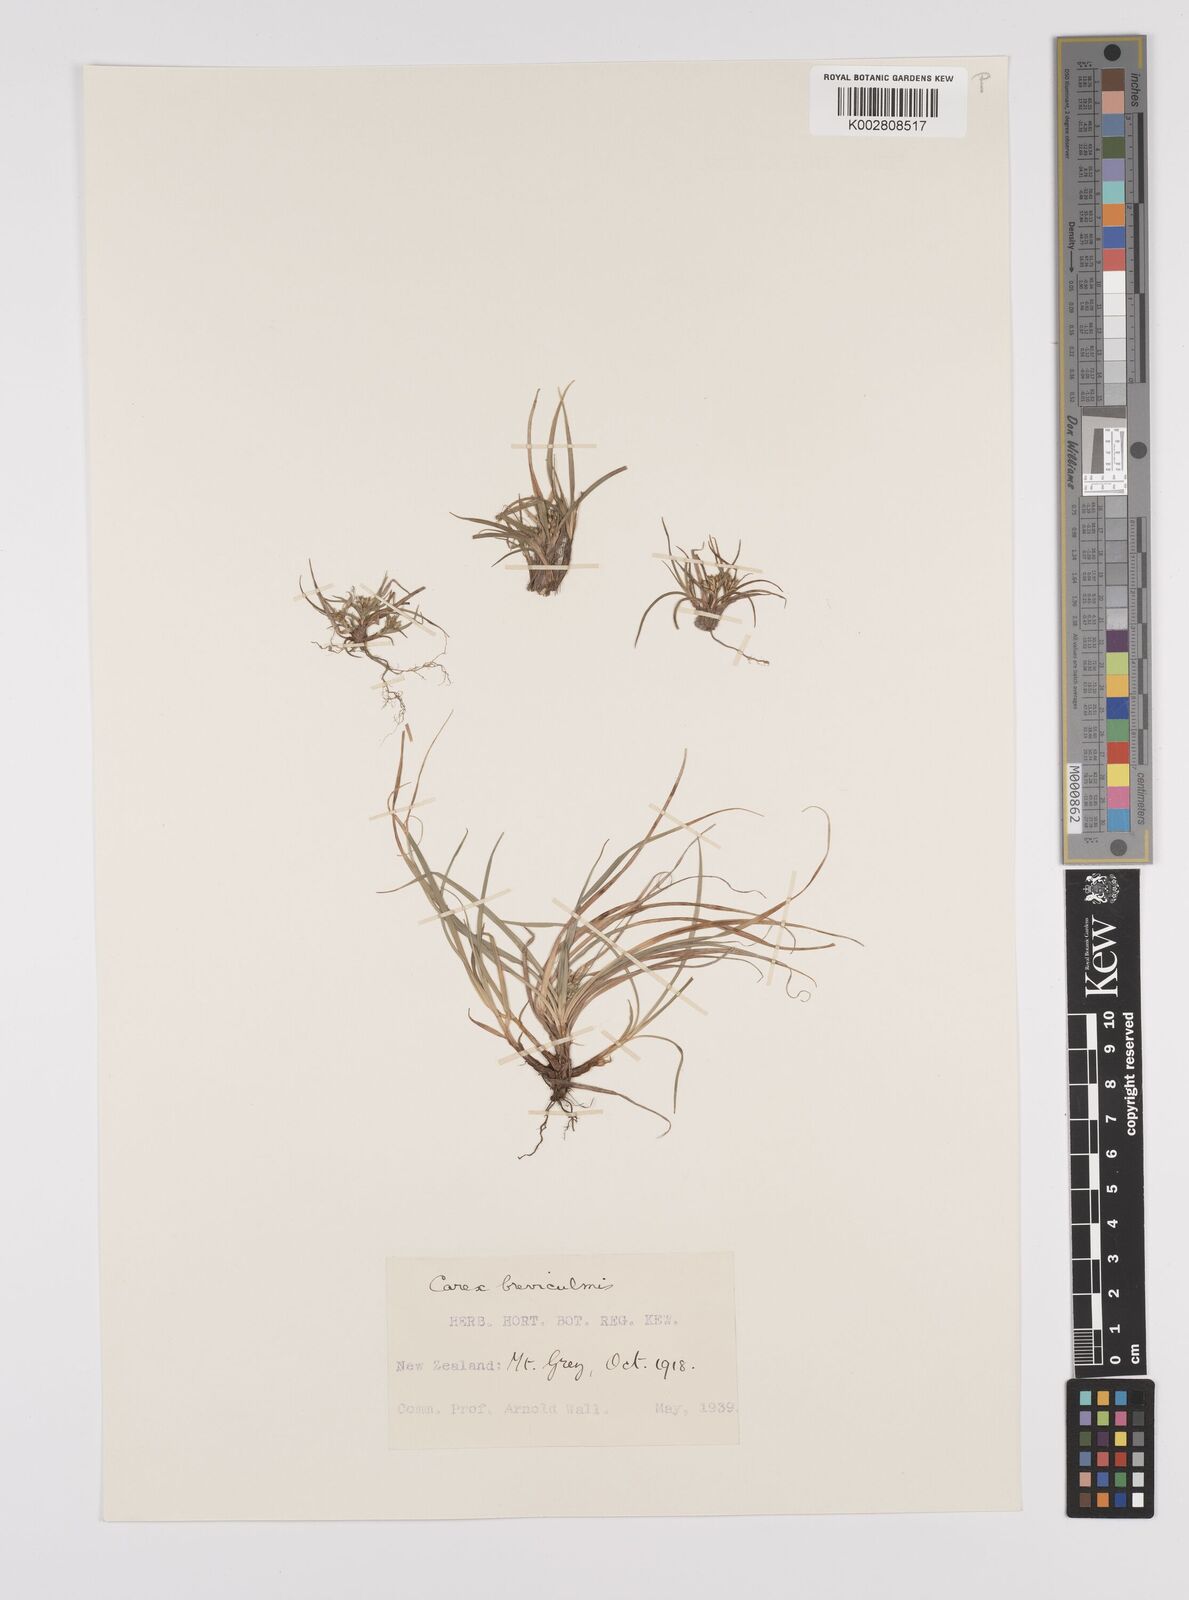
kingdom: Plantae
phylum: Tracheophyta
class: Liliopsida
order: Poales
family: Cyperaceae
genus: Carex
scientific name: Carex breviculmis
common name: Asian shortstem sedge
